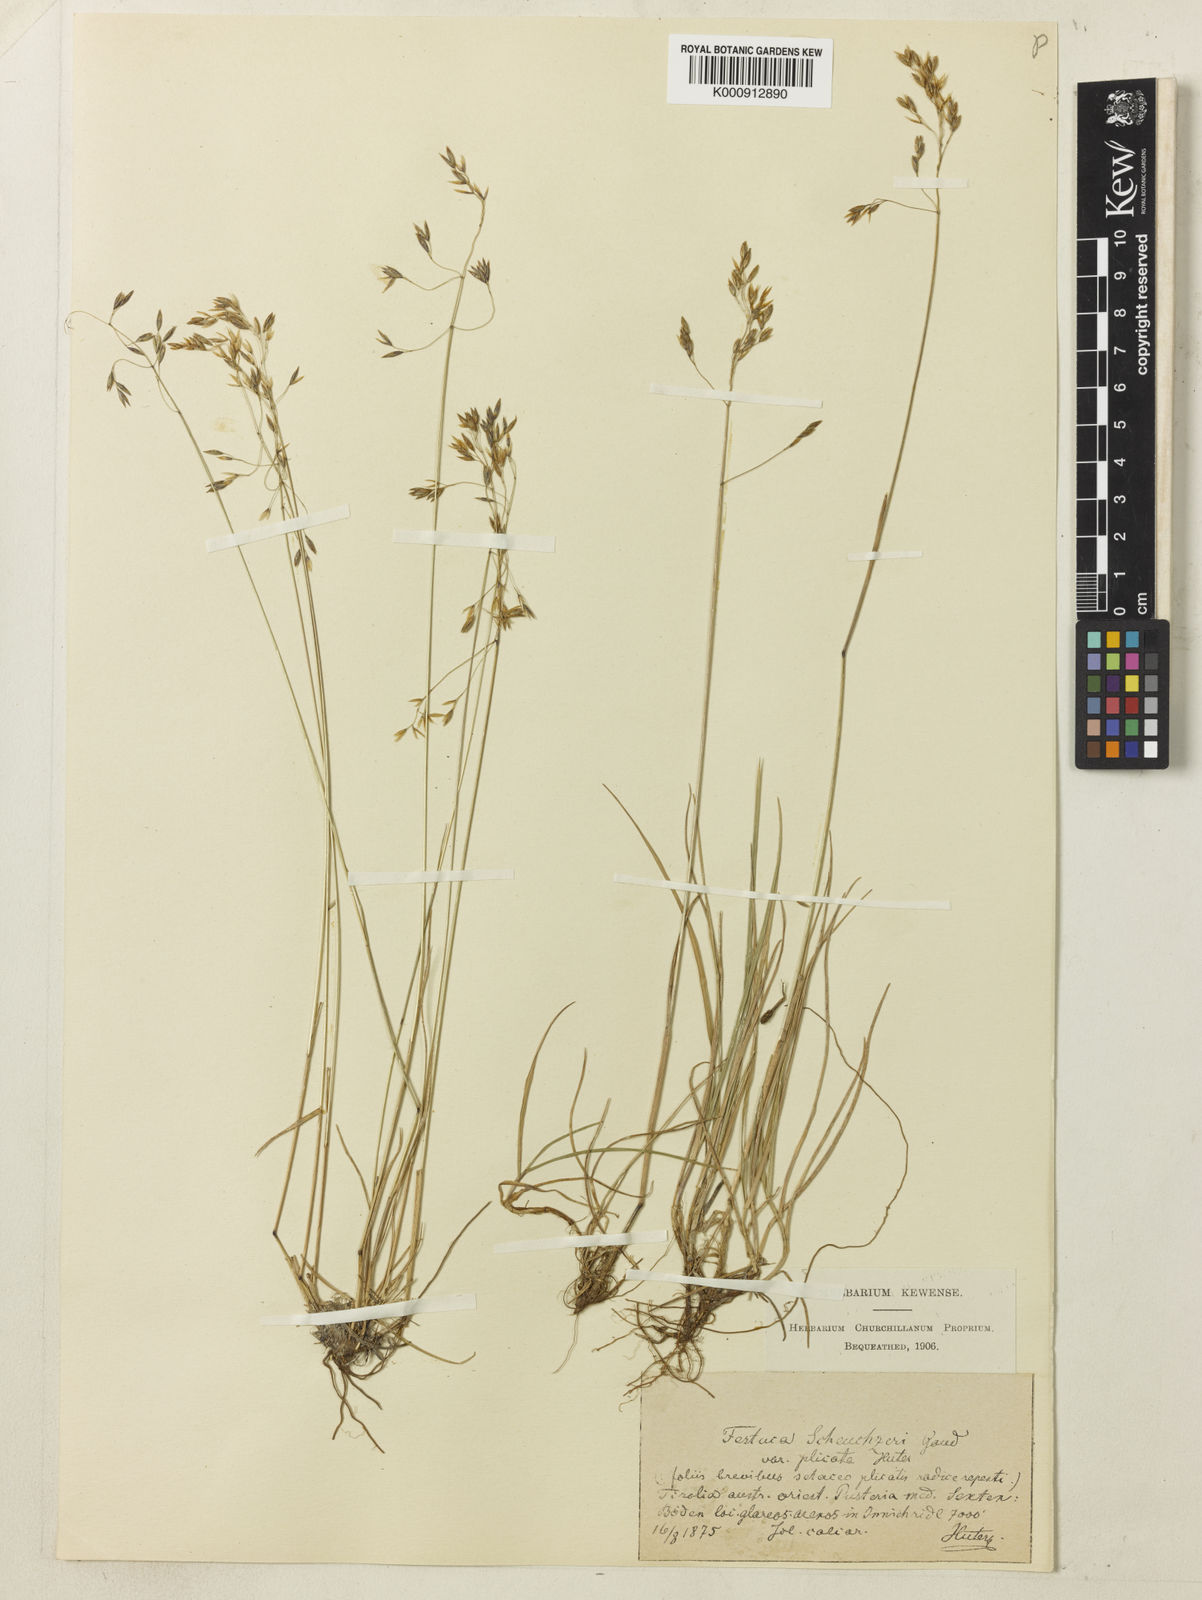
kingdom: Plantae
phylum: Tracheophyta
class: Liliopsida
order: Poales
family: Poaceae
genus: Festuca
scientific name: Festuca pulchella
